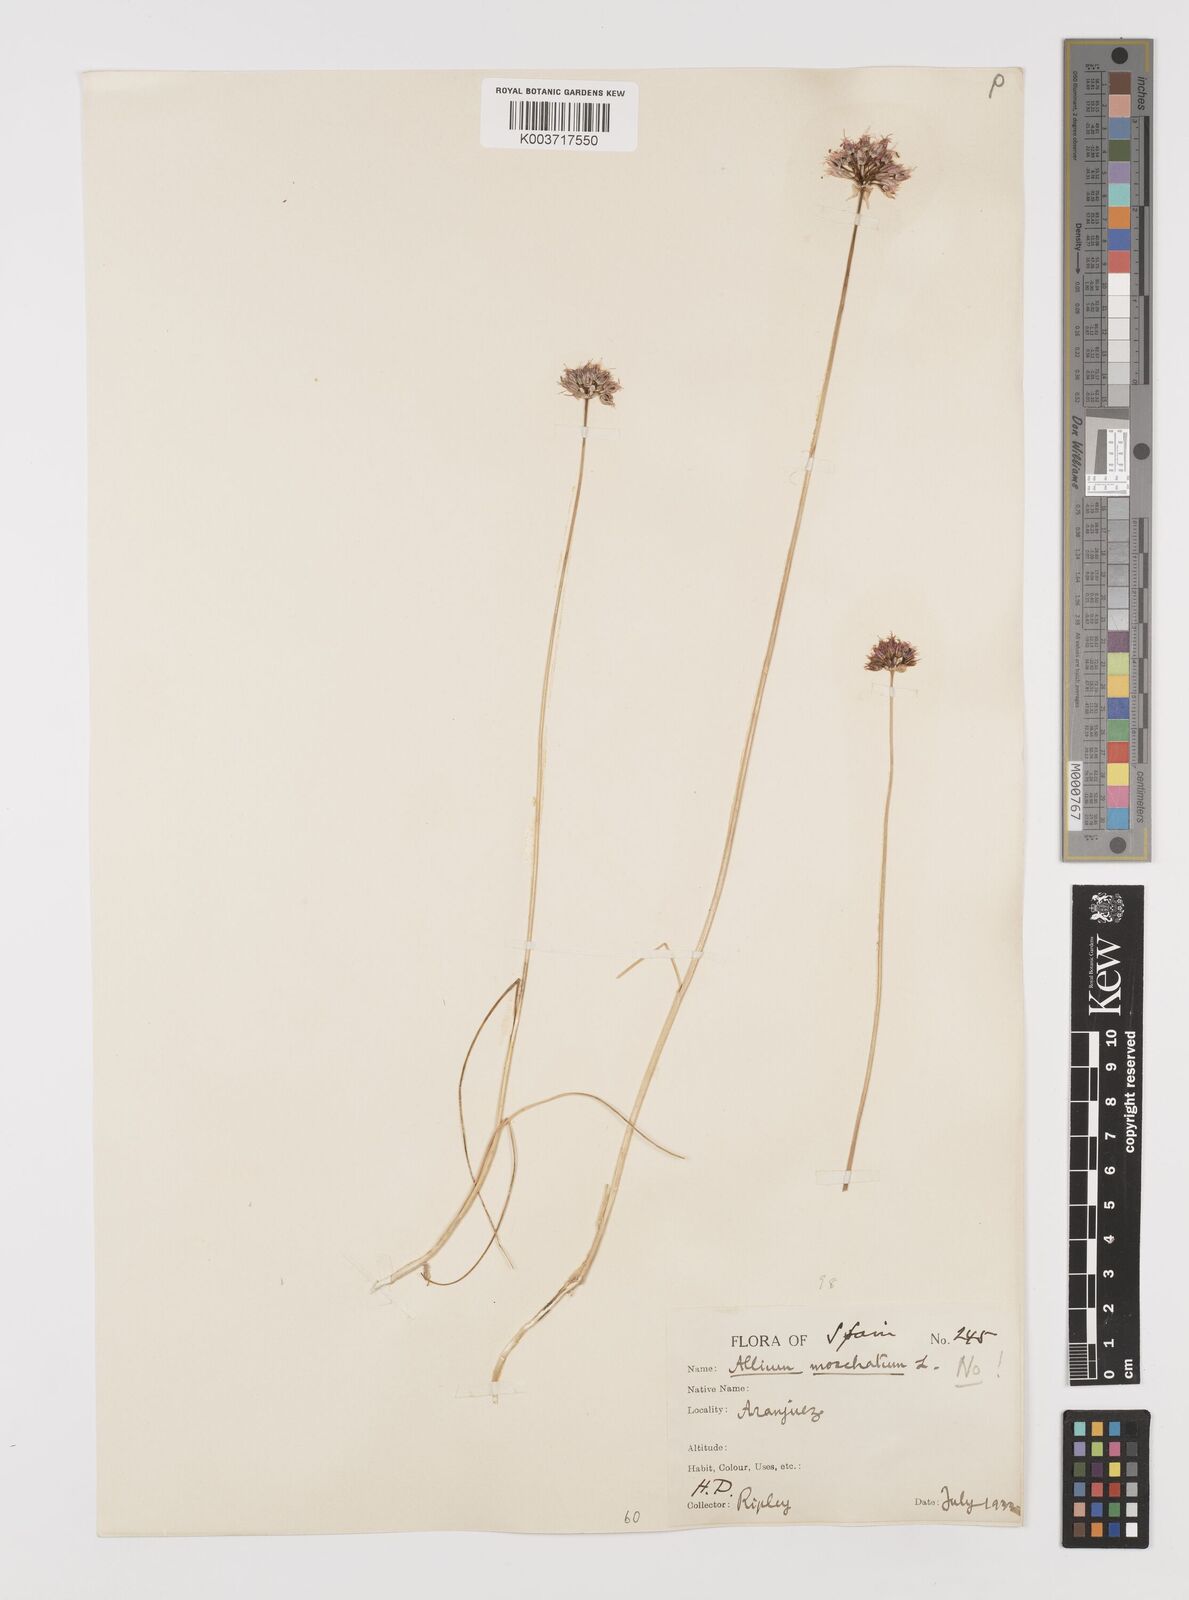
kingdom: Plantae
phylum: Tracheophyta
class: Liliopsida
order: Asparagales
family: Amaryllidaceae
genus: Allium
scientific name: Allium
